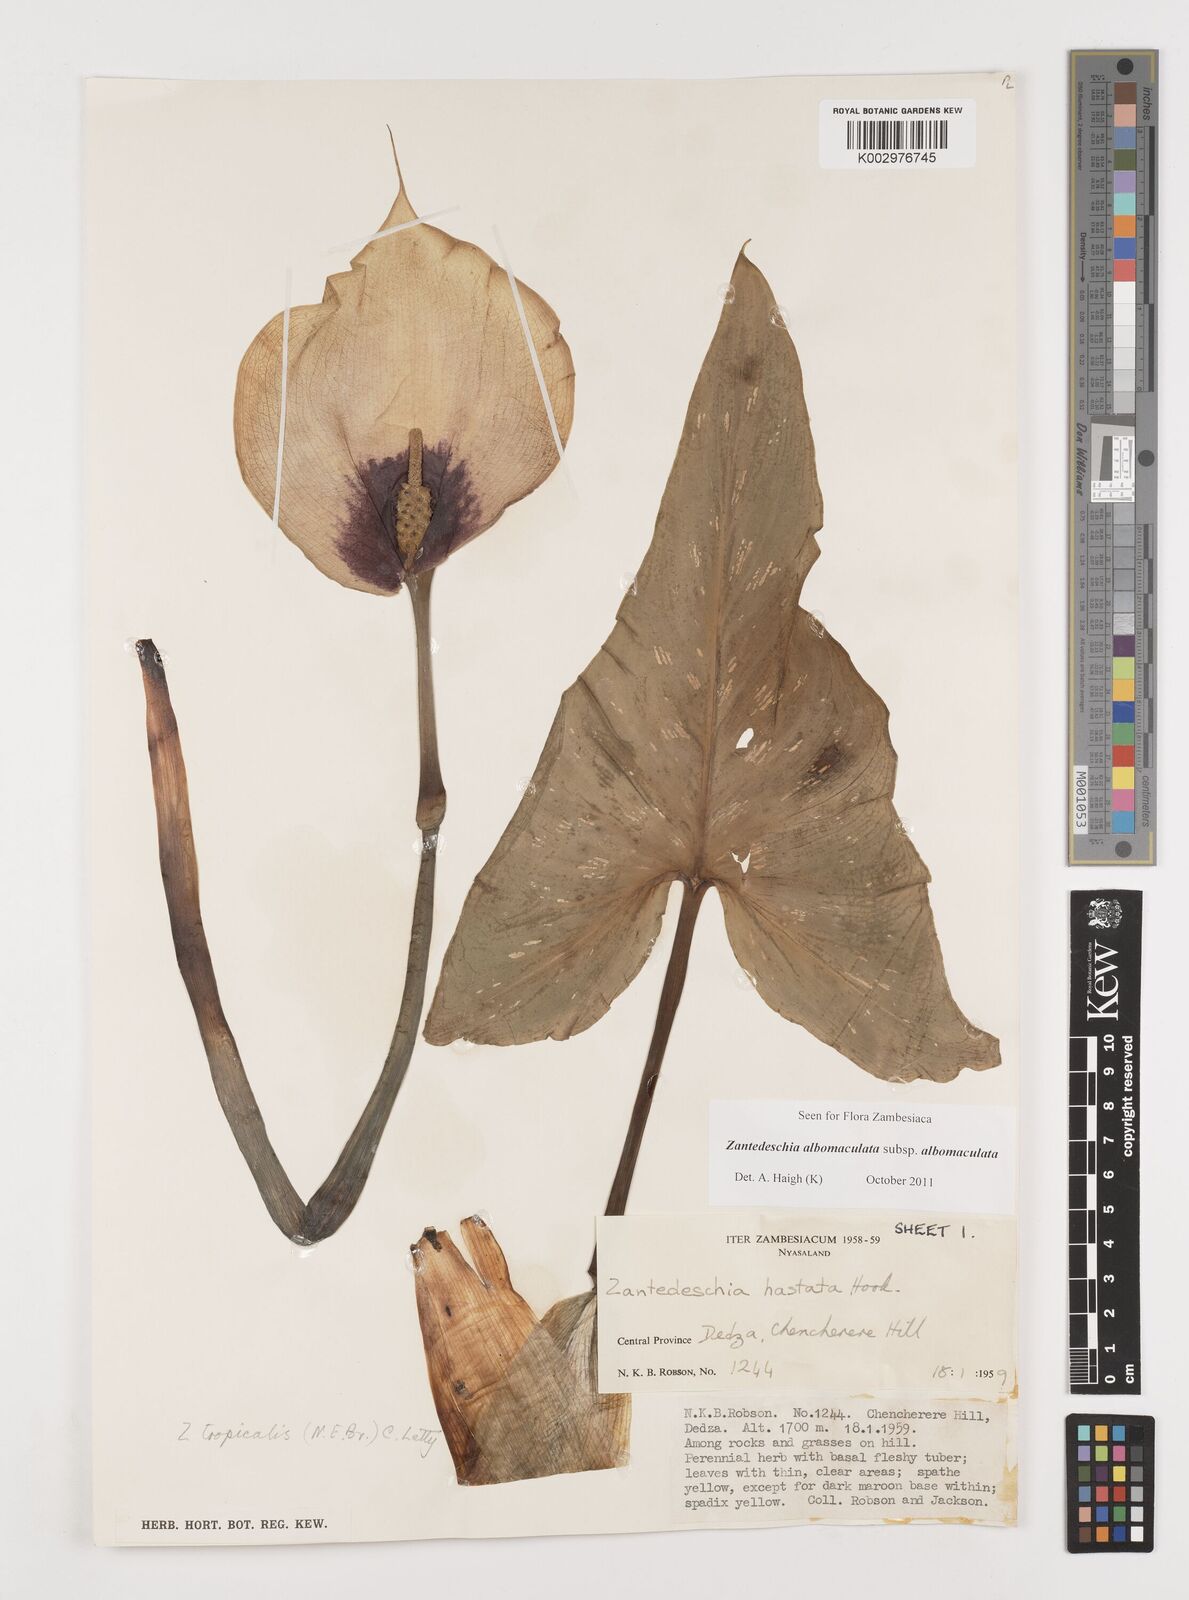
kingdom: Plantae
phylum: Tracheophyta
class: Liliopsida
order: Alismatales
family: Araceae
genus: Zantedeschia
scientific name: Zantedeschia albomaculata
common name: Spotted calla lily
